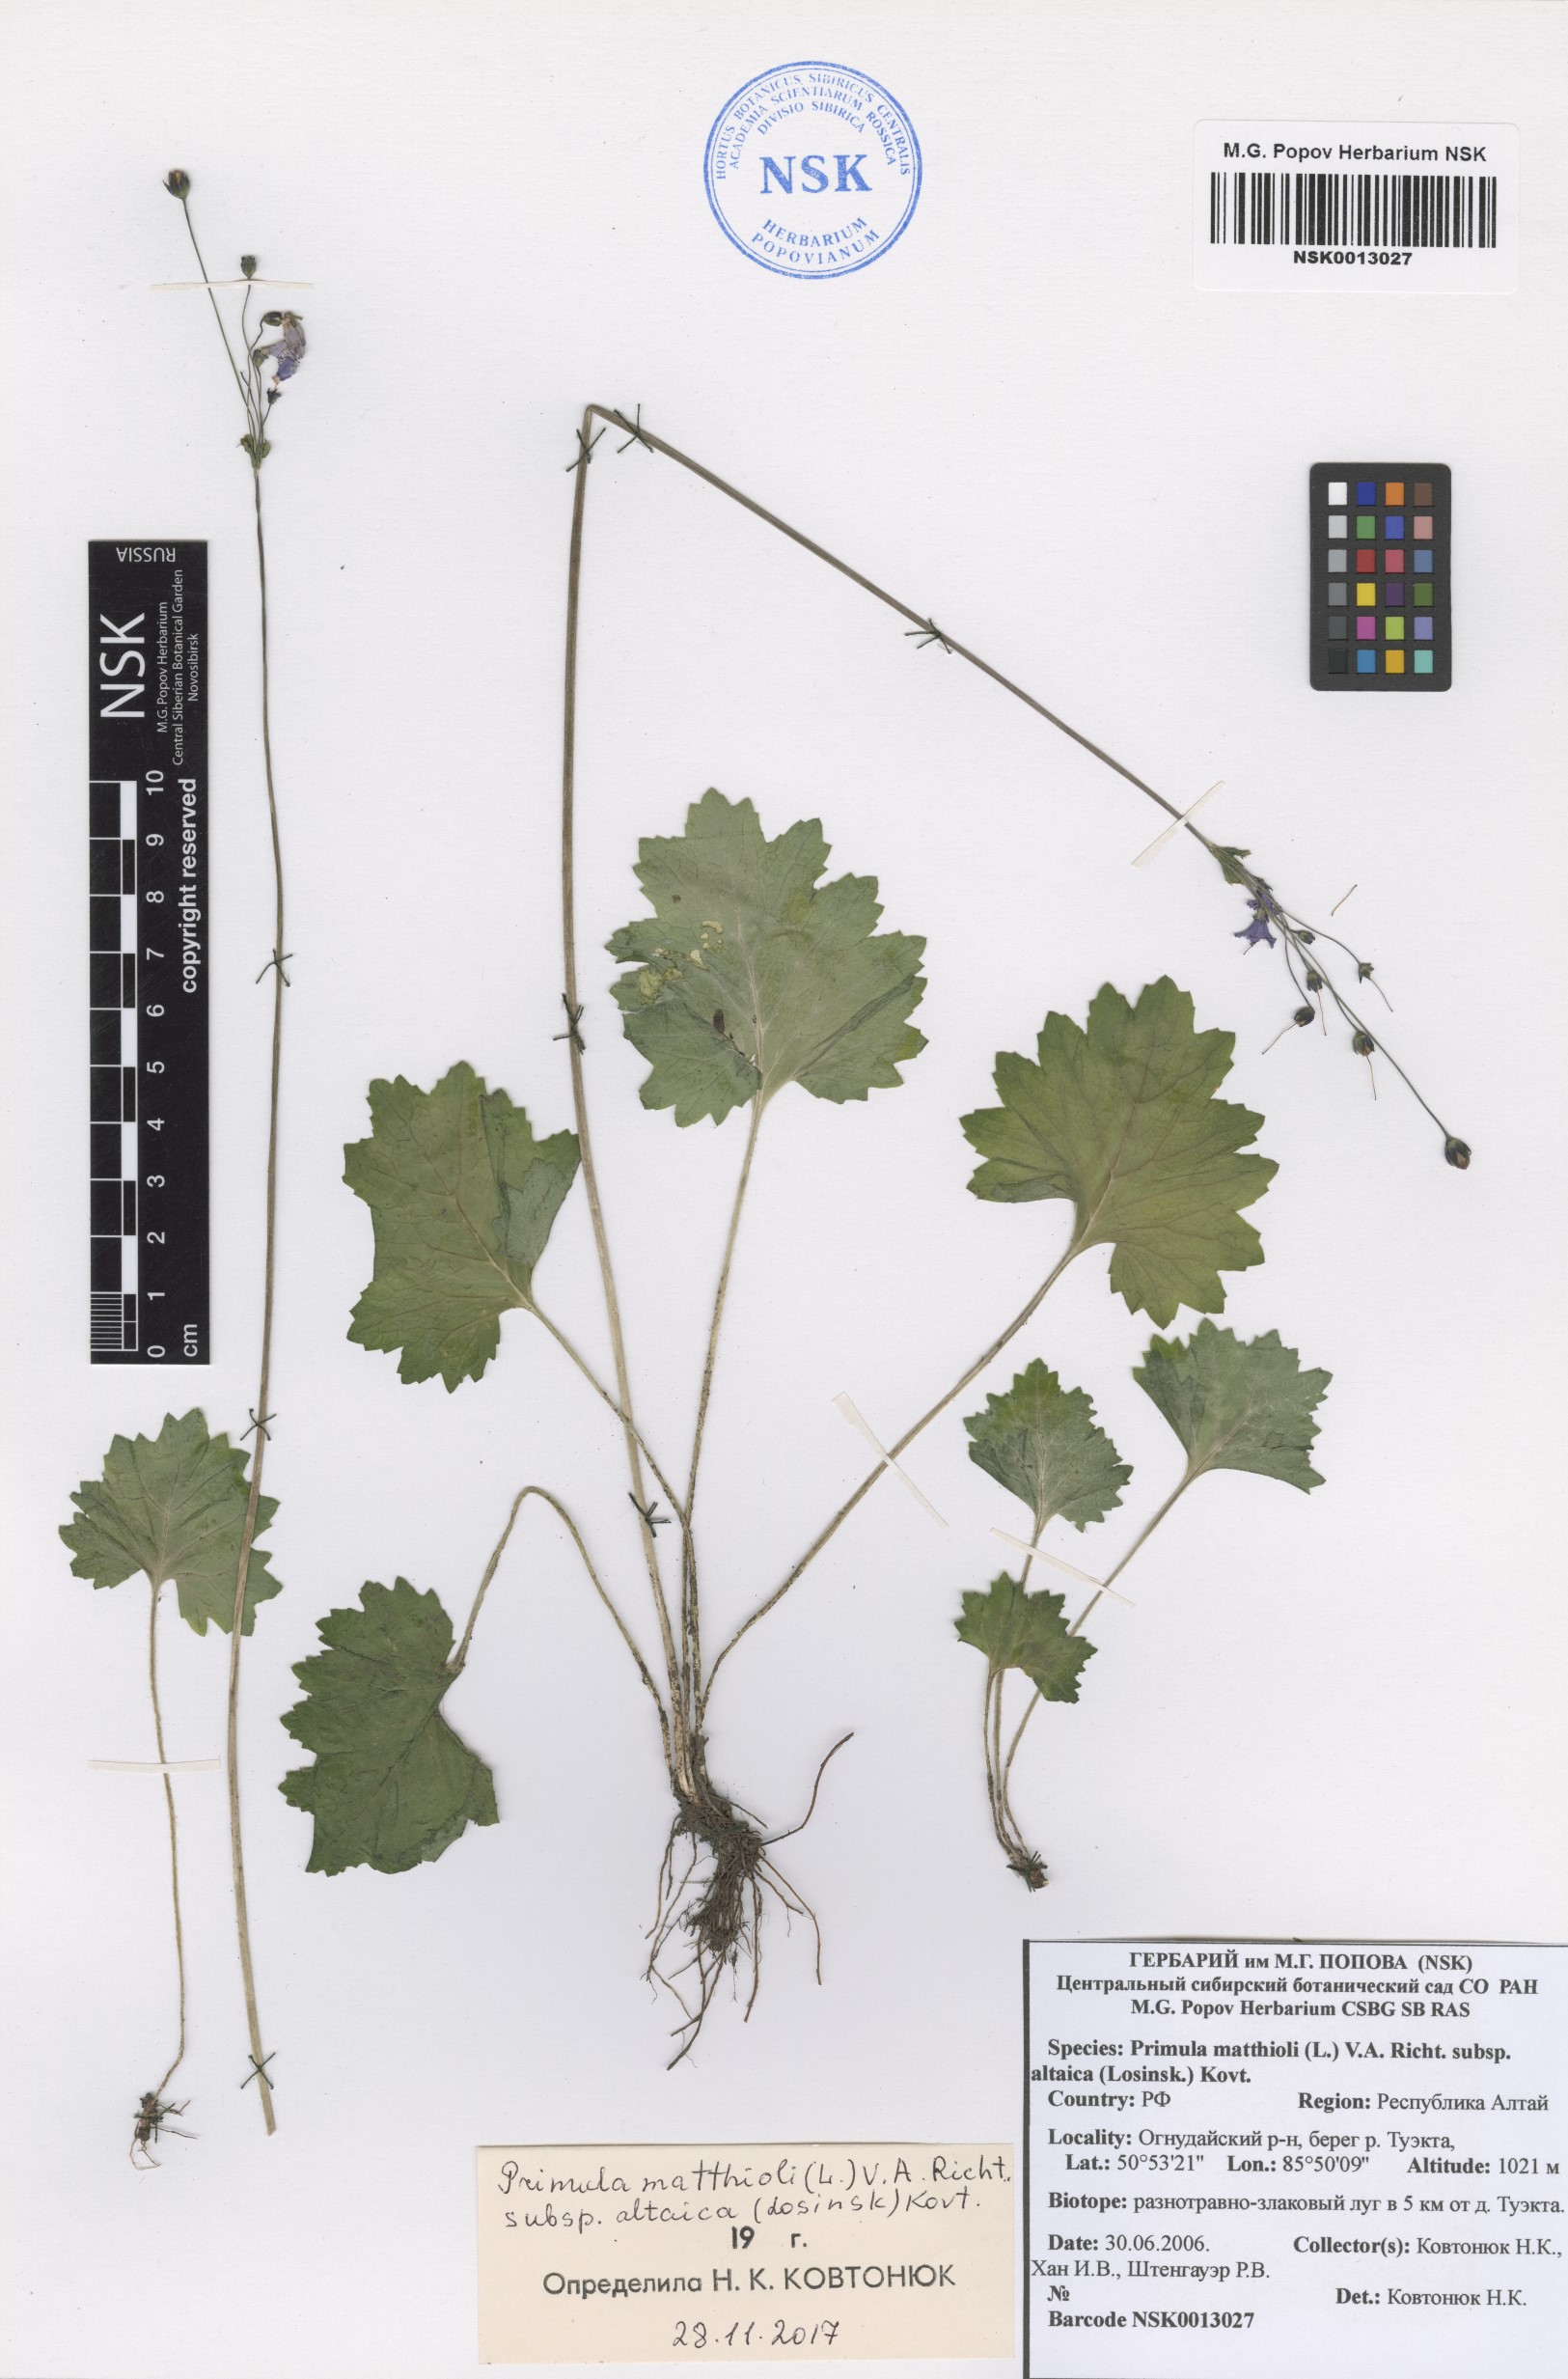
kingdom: Plantae
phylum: Tracheophyta
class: Magnoliopsida
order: Ericales
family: Primulaceae
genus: Primula
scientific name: Primula matthioli
